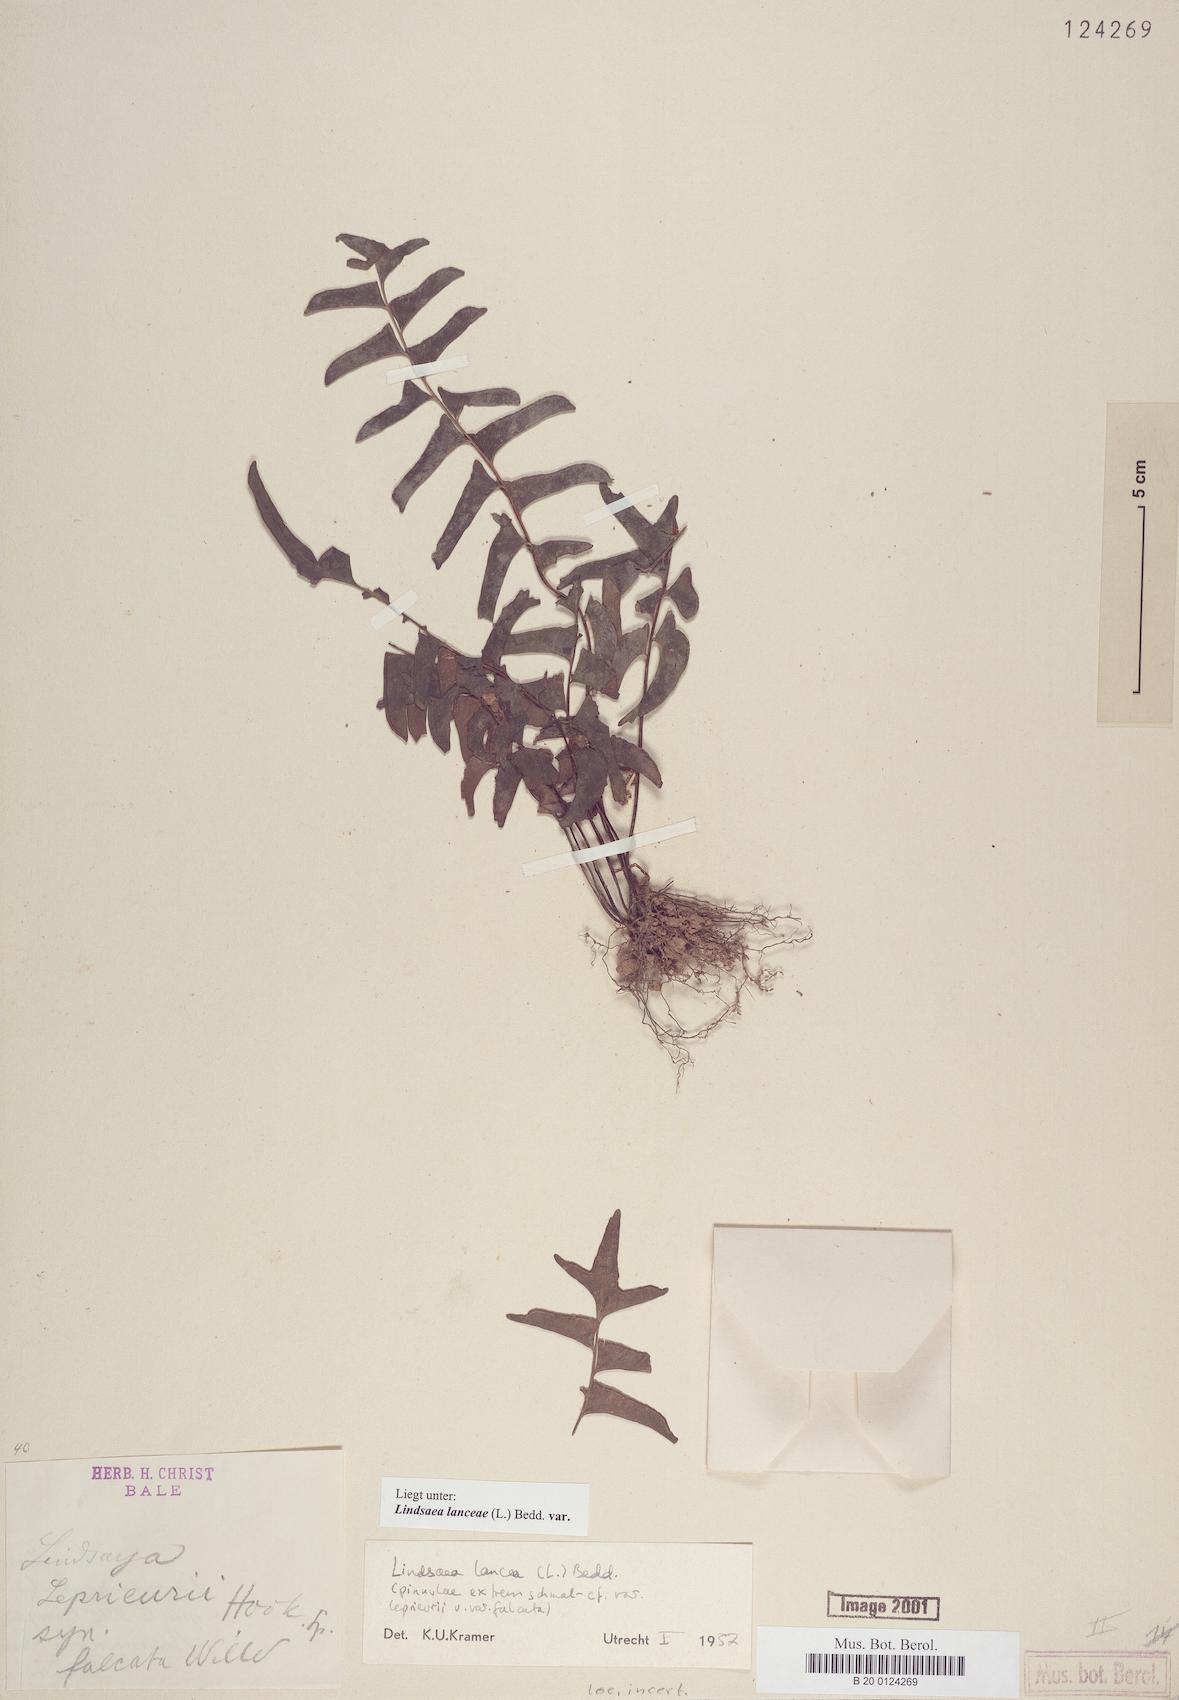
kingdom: Plantae
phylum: Tracheophyta
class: Polypodiopsida
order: Polypodiales
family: Lindsaeaceae
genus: Lindsaea
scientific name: Lindsaea lancea
